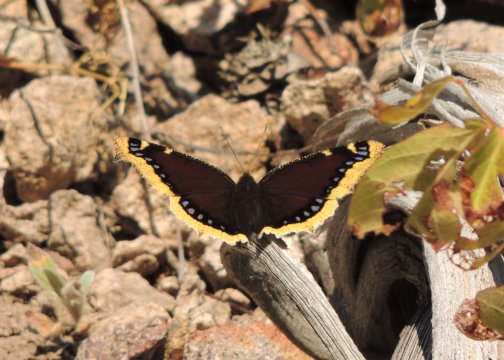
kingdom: Animalia
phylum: Arthropoda
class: Insecta
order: Lepidoptera
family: Nymphalidae
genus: Nymphalis
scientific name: Nymphalis antiopa
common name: Mourning Cloak
